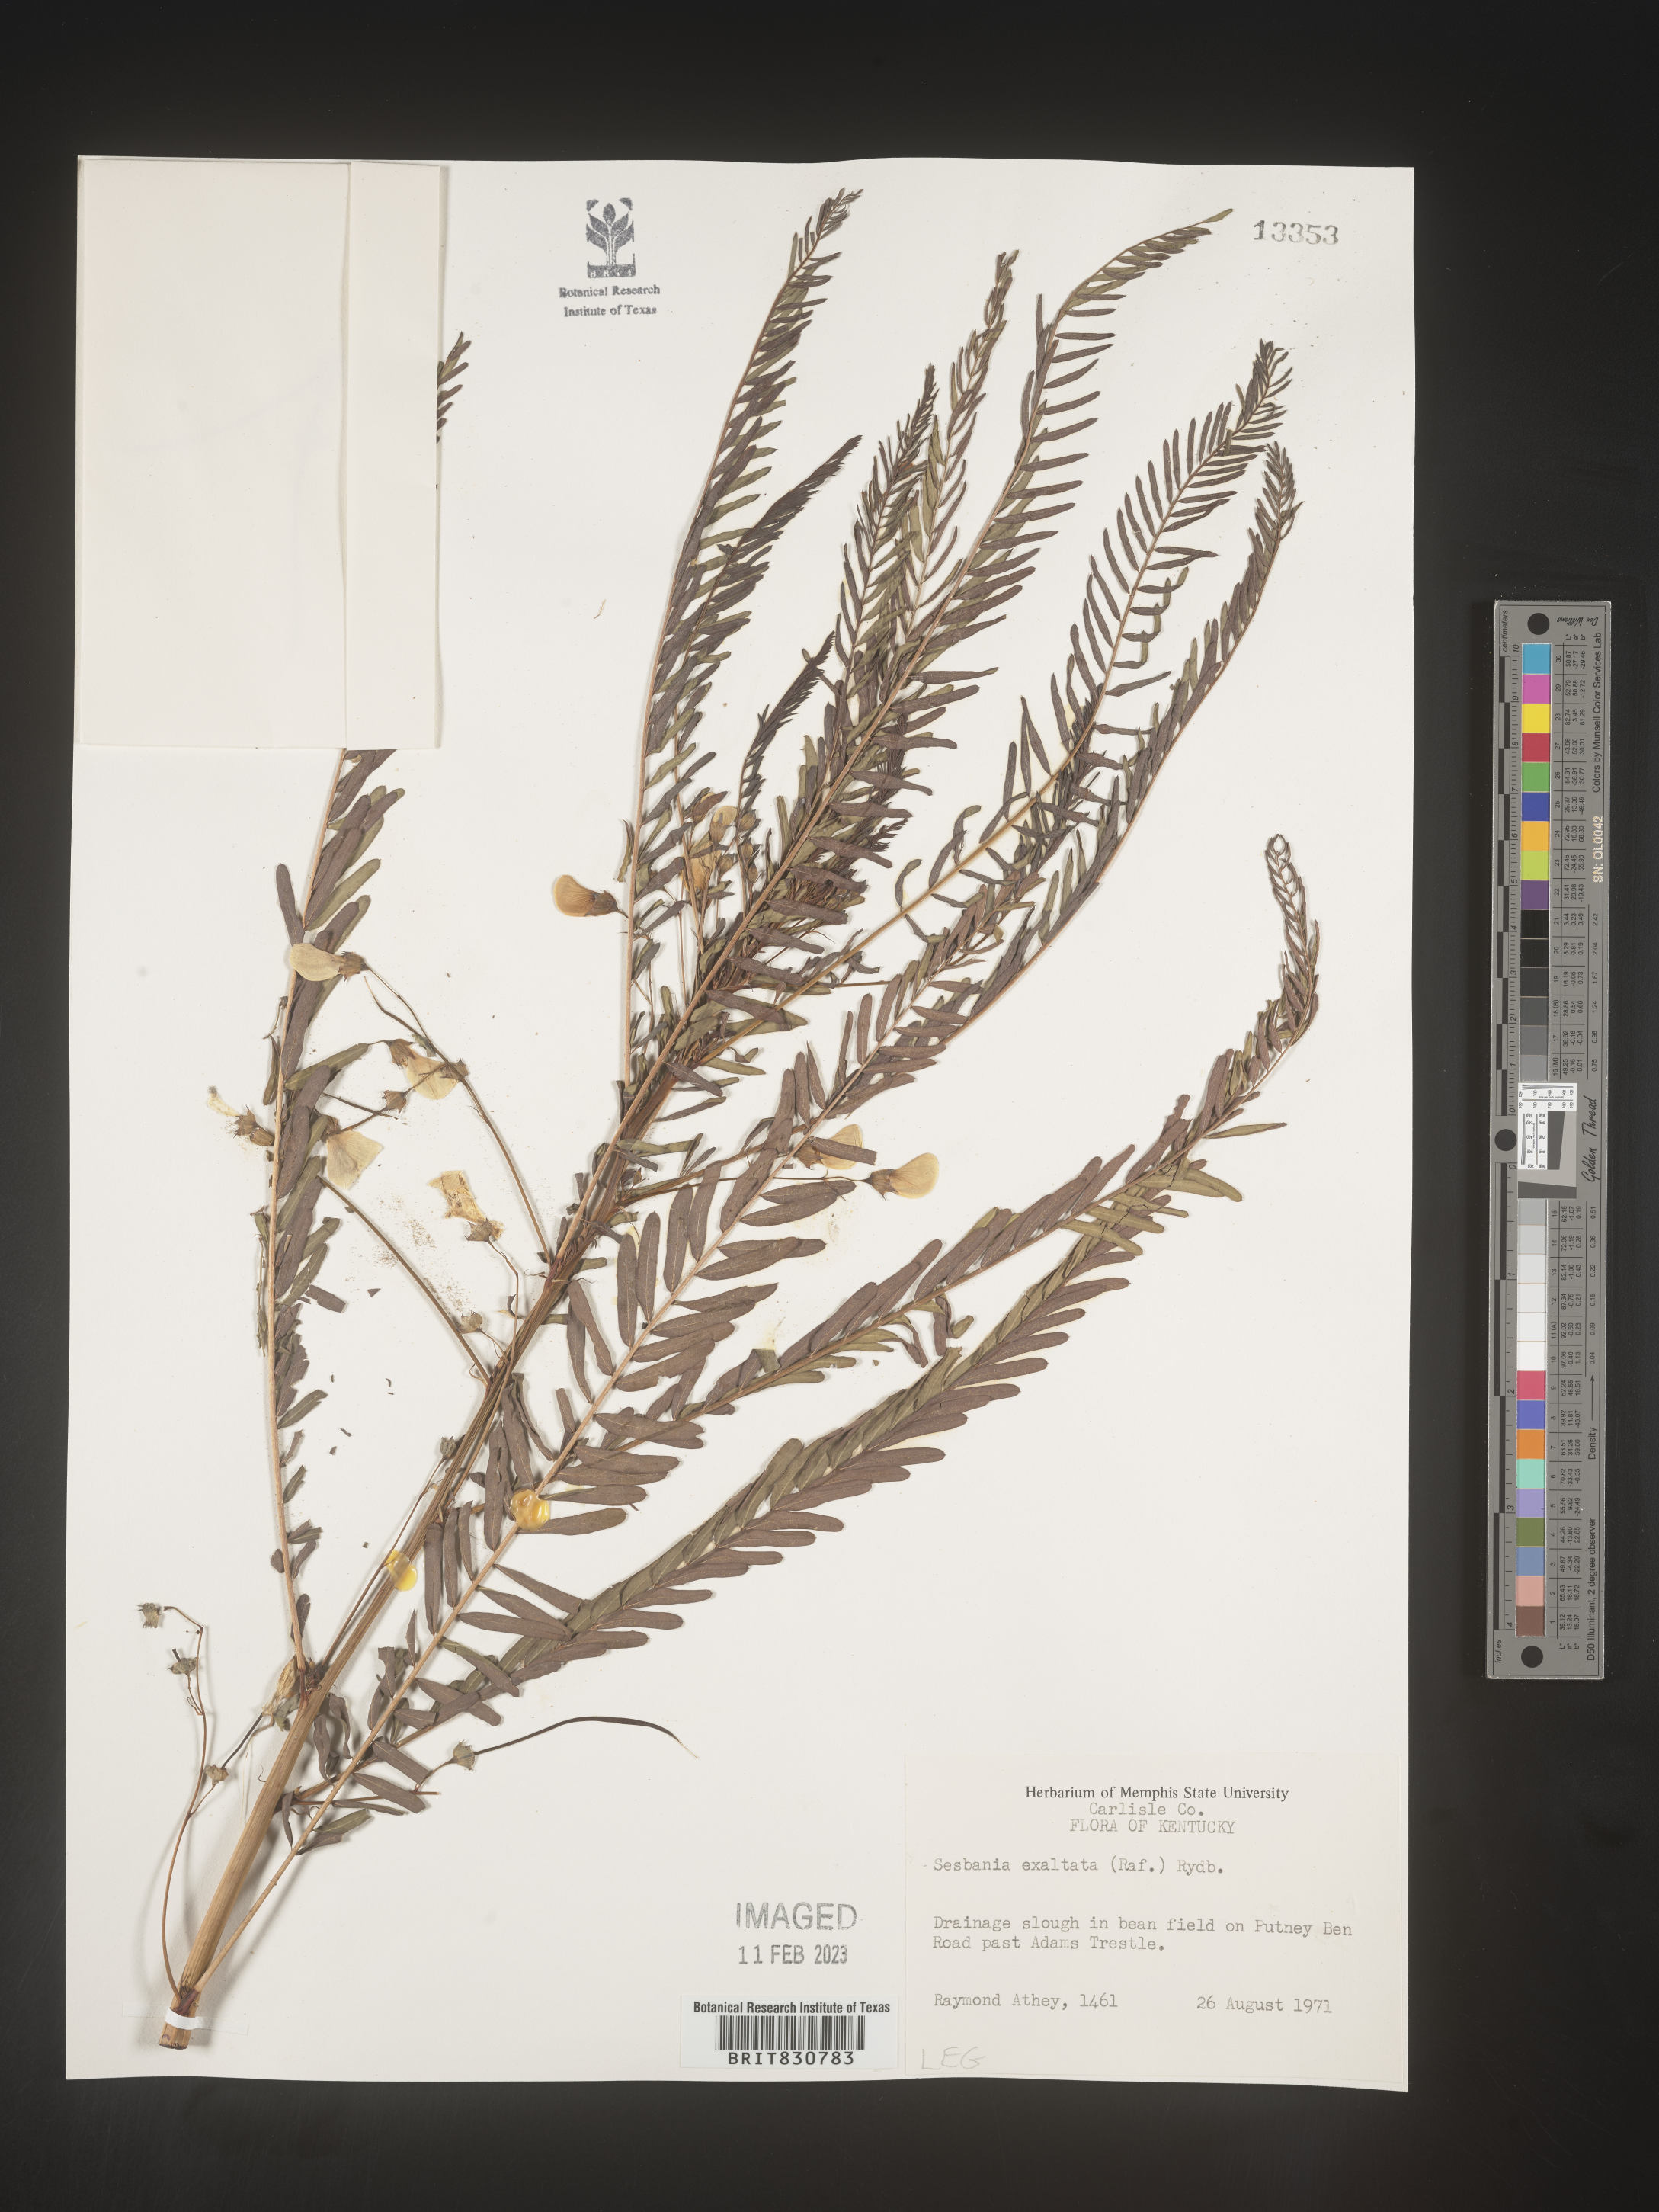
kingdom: Plantae
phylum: Tracheophyta
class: Magnoliopsida
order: Fabales
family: Fabaceae
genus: Sesbania
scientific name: Sesbania vesicaria
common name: Bagpod
